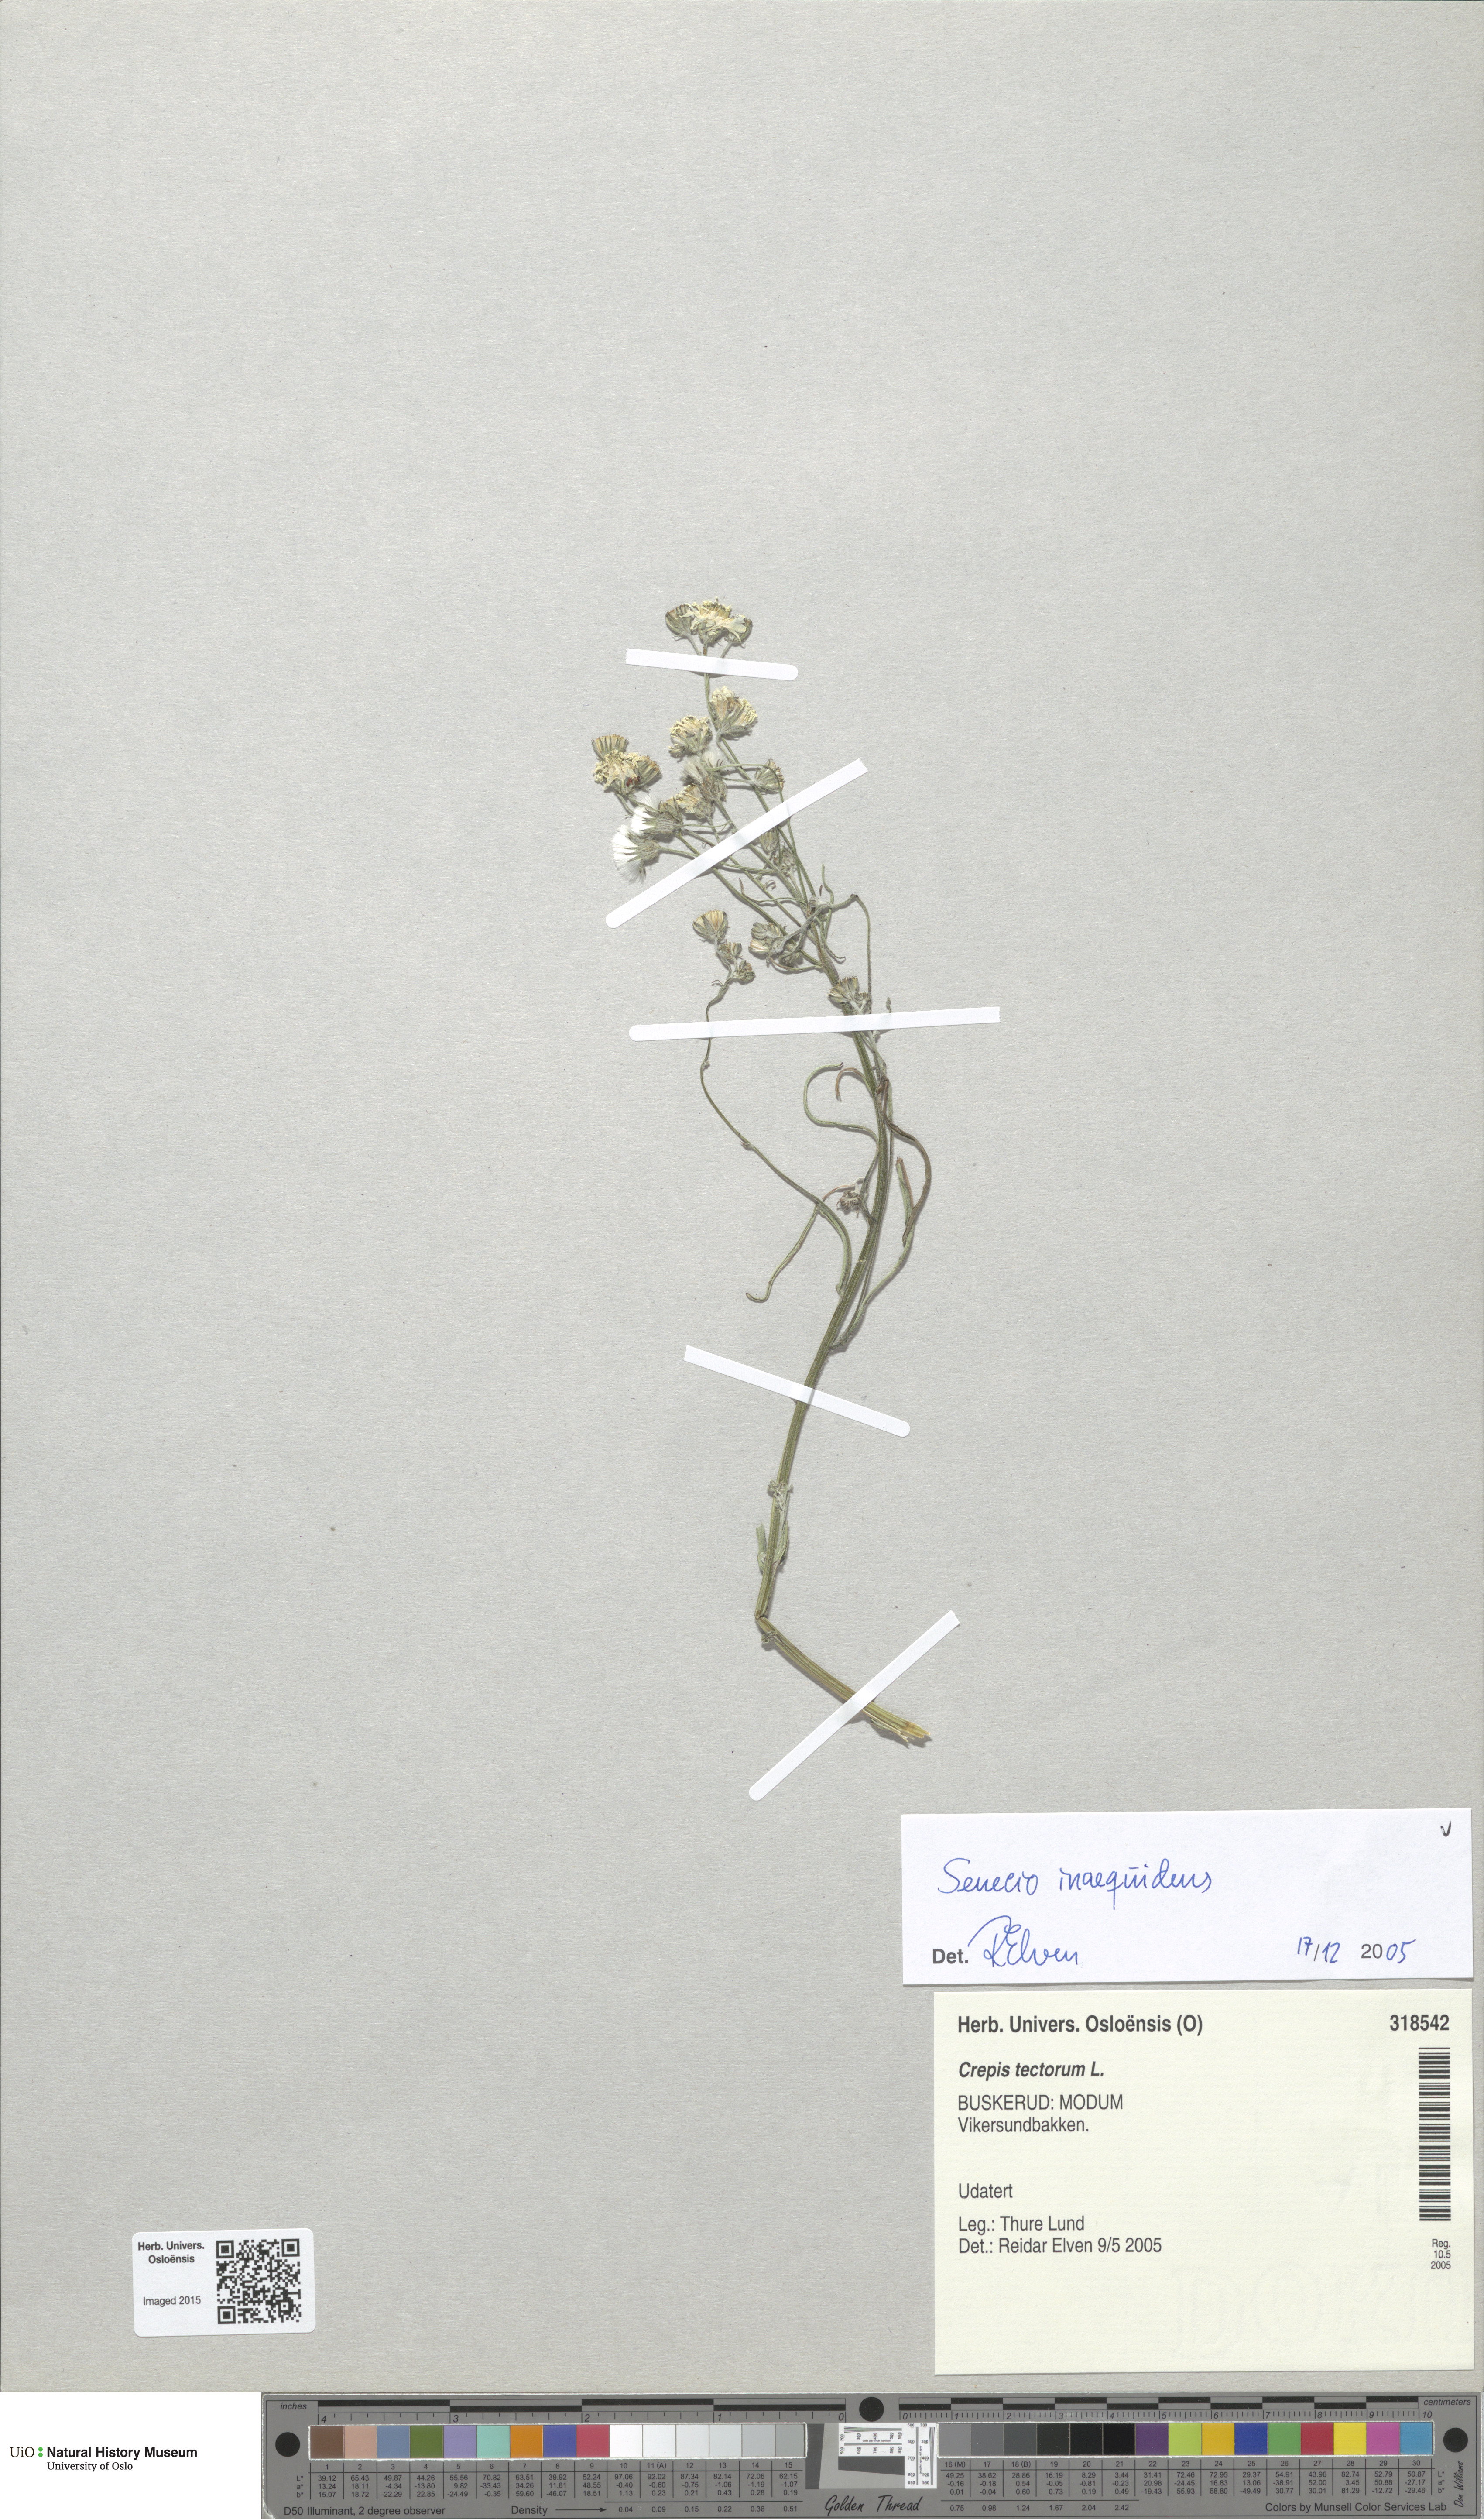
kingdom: Plantae
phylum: Tracheophyta
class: Magnoliopsida
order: Asterales
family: Asteraceae
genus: Senecio
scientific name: Senecio inaequidens
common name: Narrow-leaved ragwort
